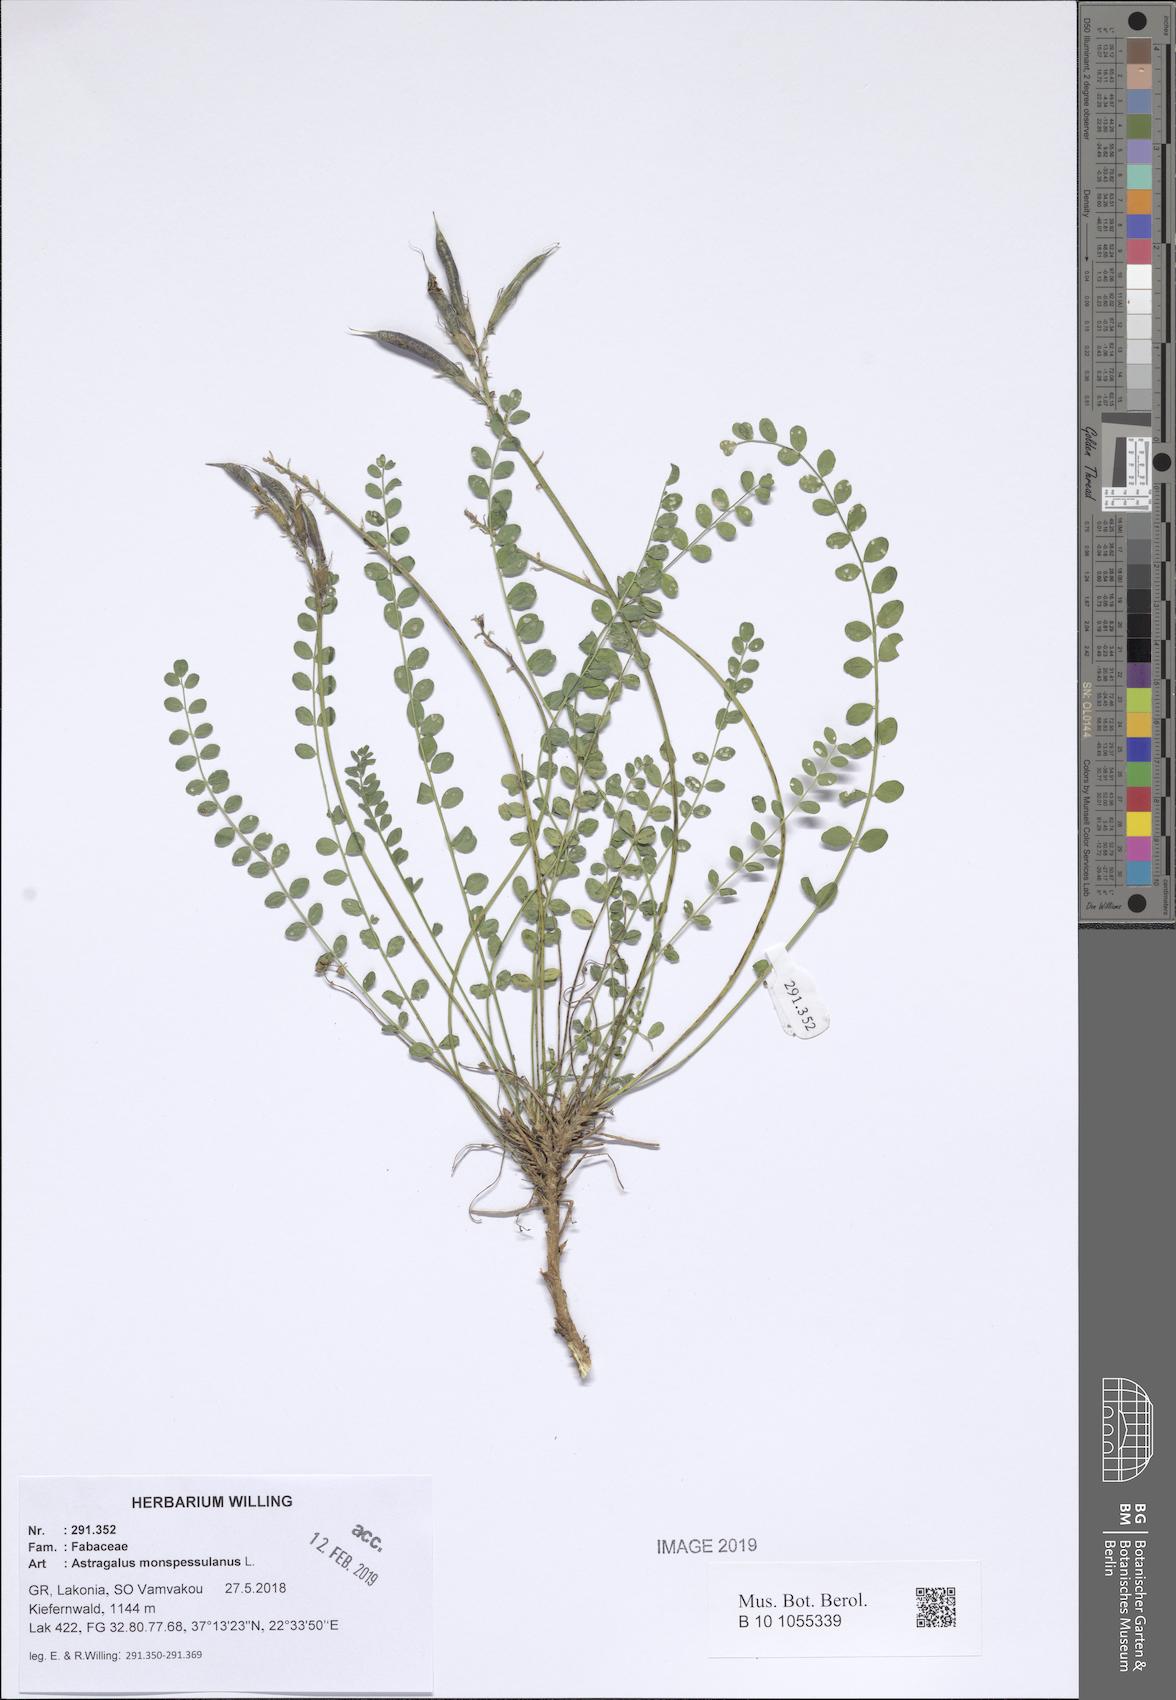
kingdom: Plantae
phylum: Tracheophyta
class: Magnoliopsida
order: Fabales
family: Fabaceae
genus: Astragalus
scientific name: Astragalus monspessulanus
